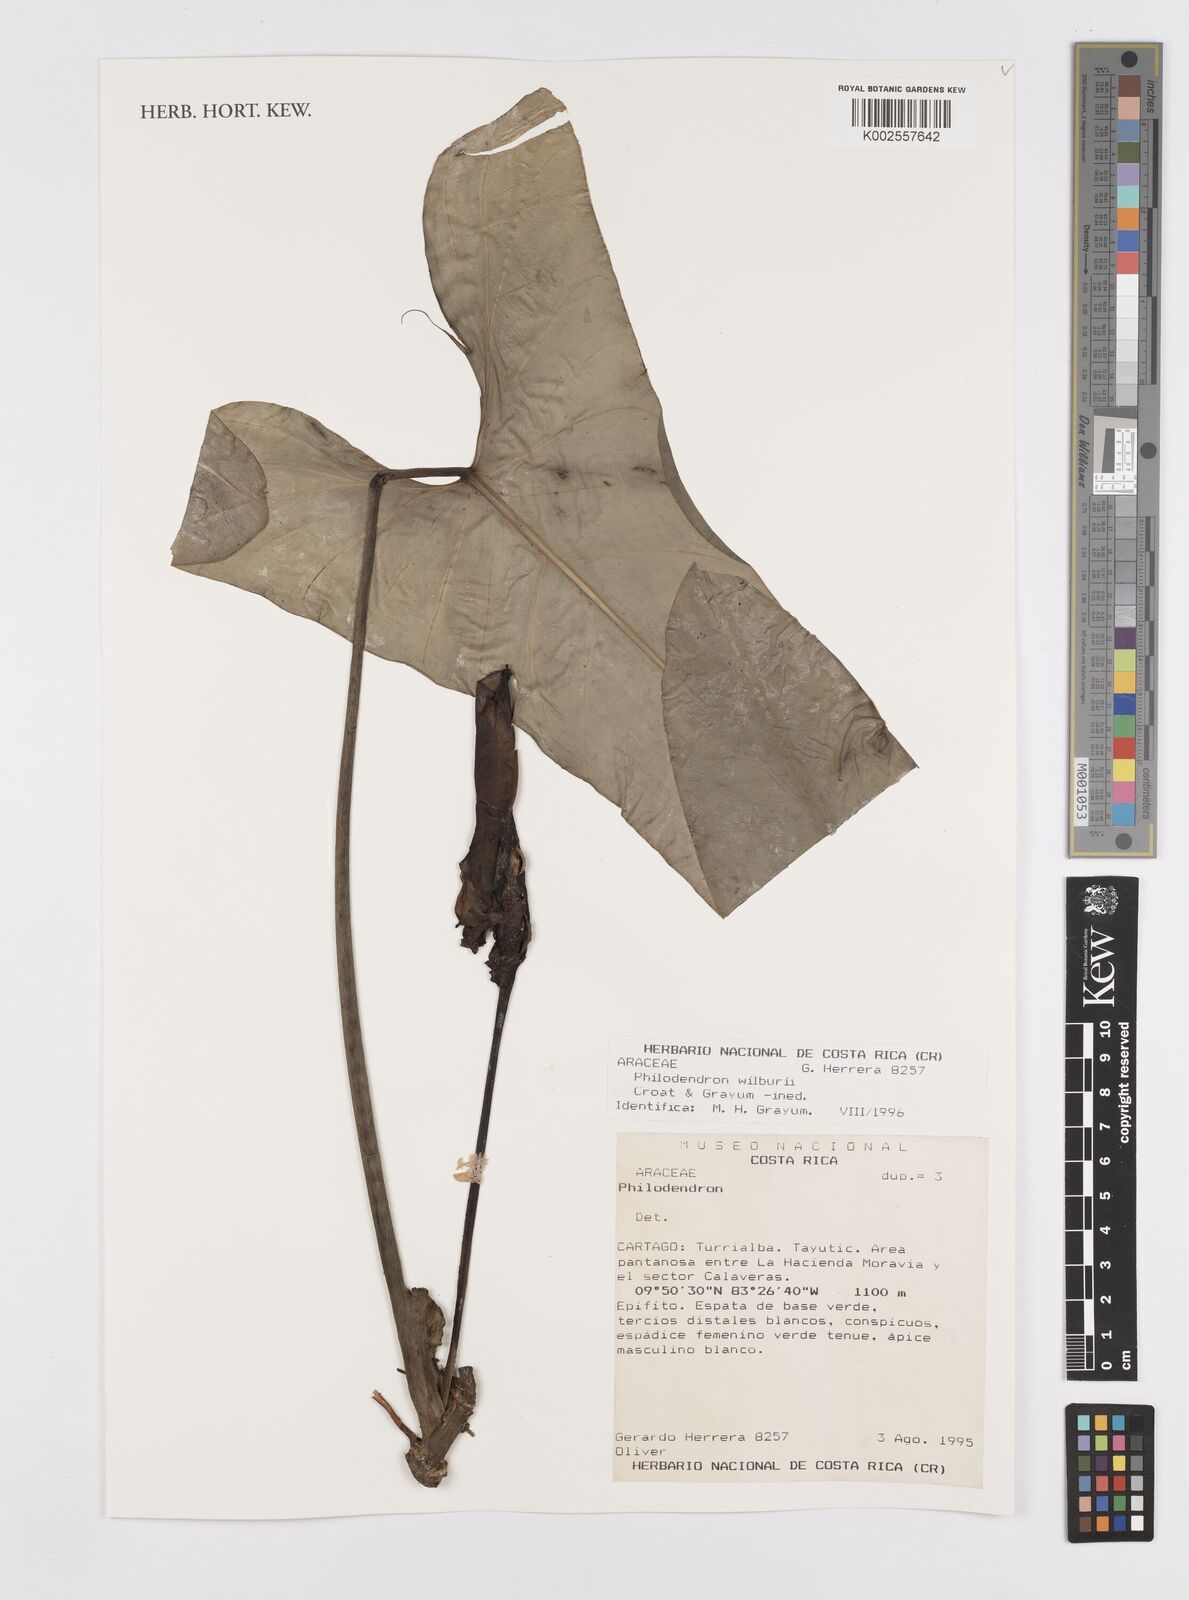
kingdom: Plantae
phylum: Tracheophyta
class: Liliopsida
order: Alismatales
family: Araceae
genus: Philodendron
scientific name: Philodendron wilburii
